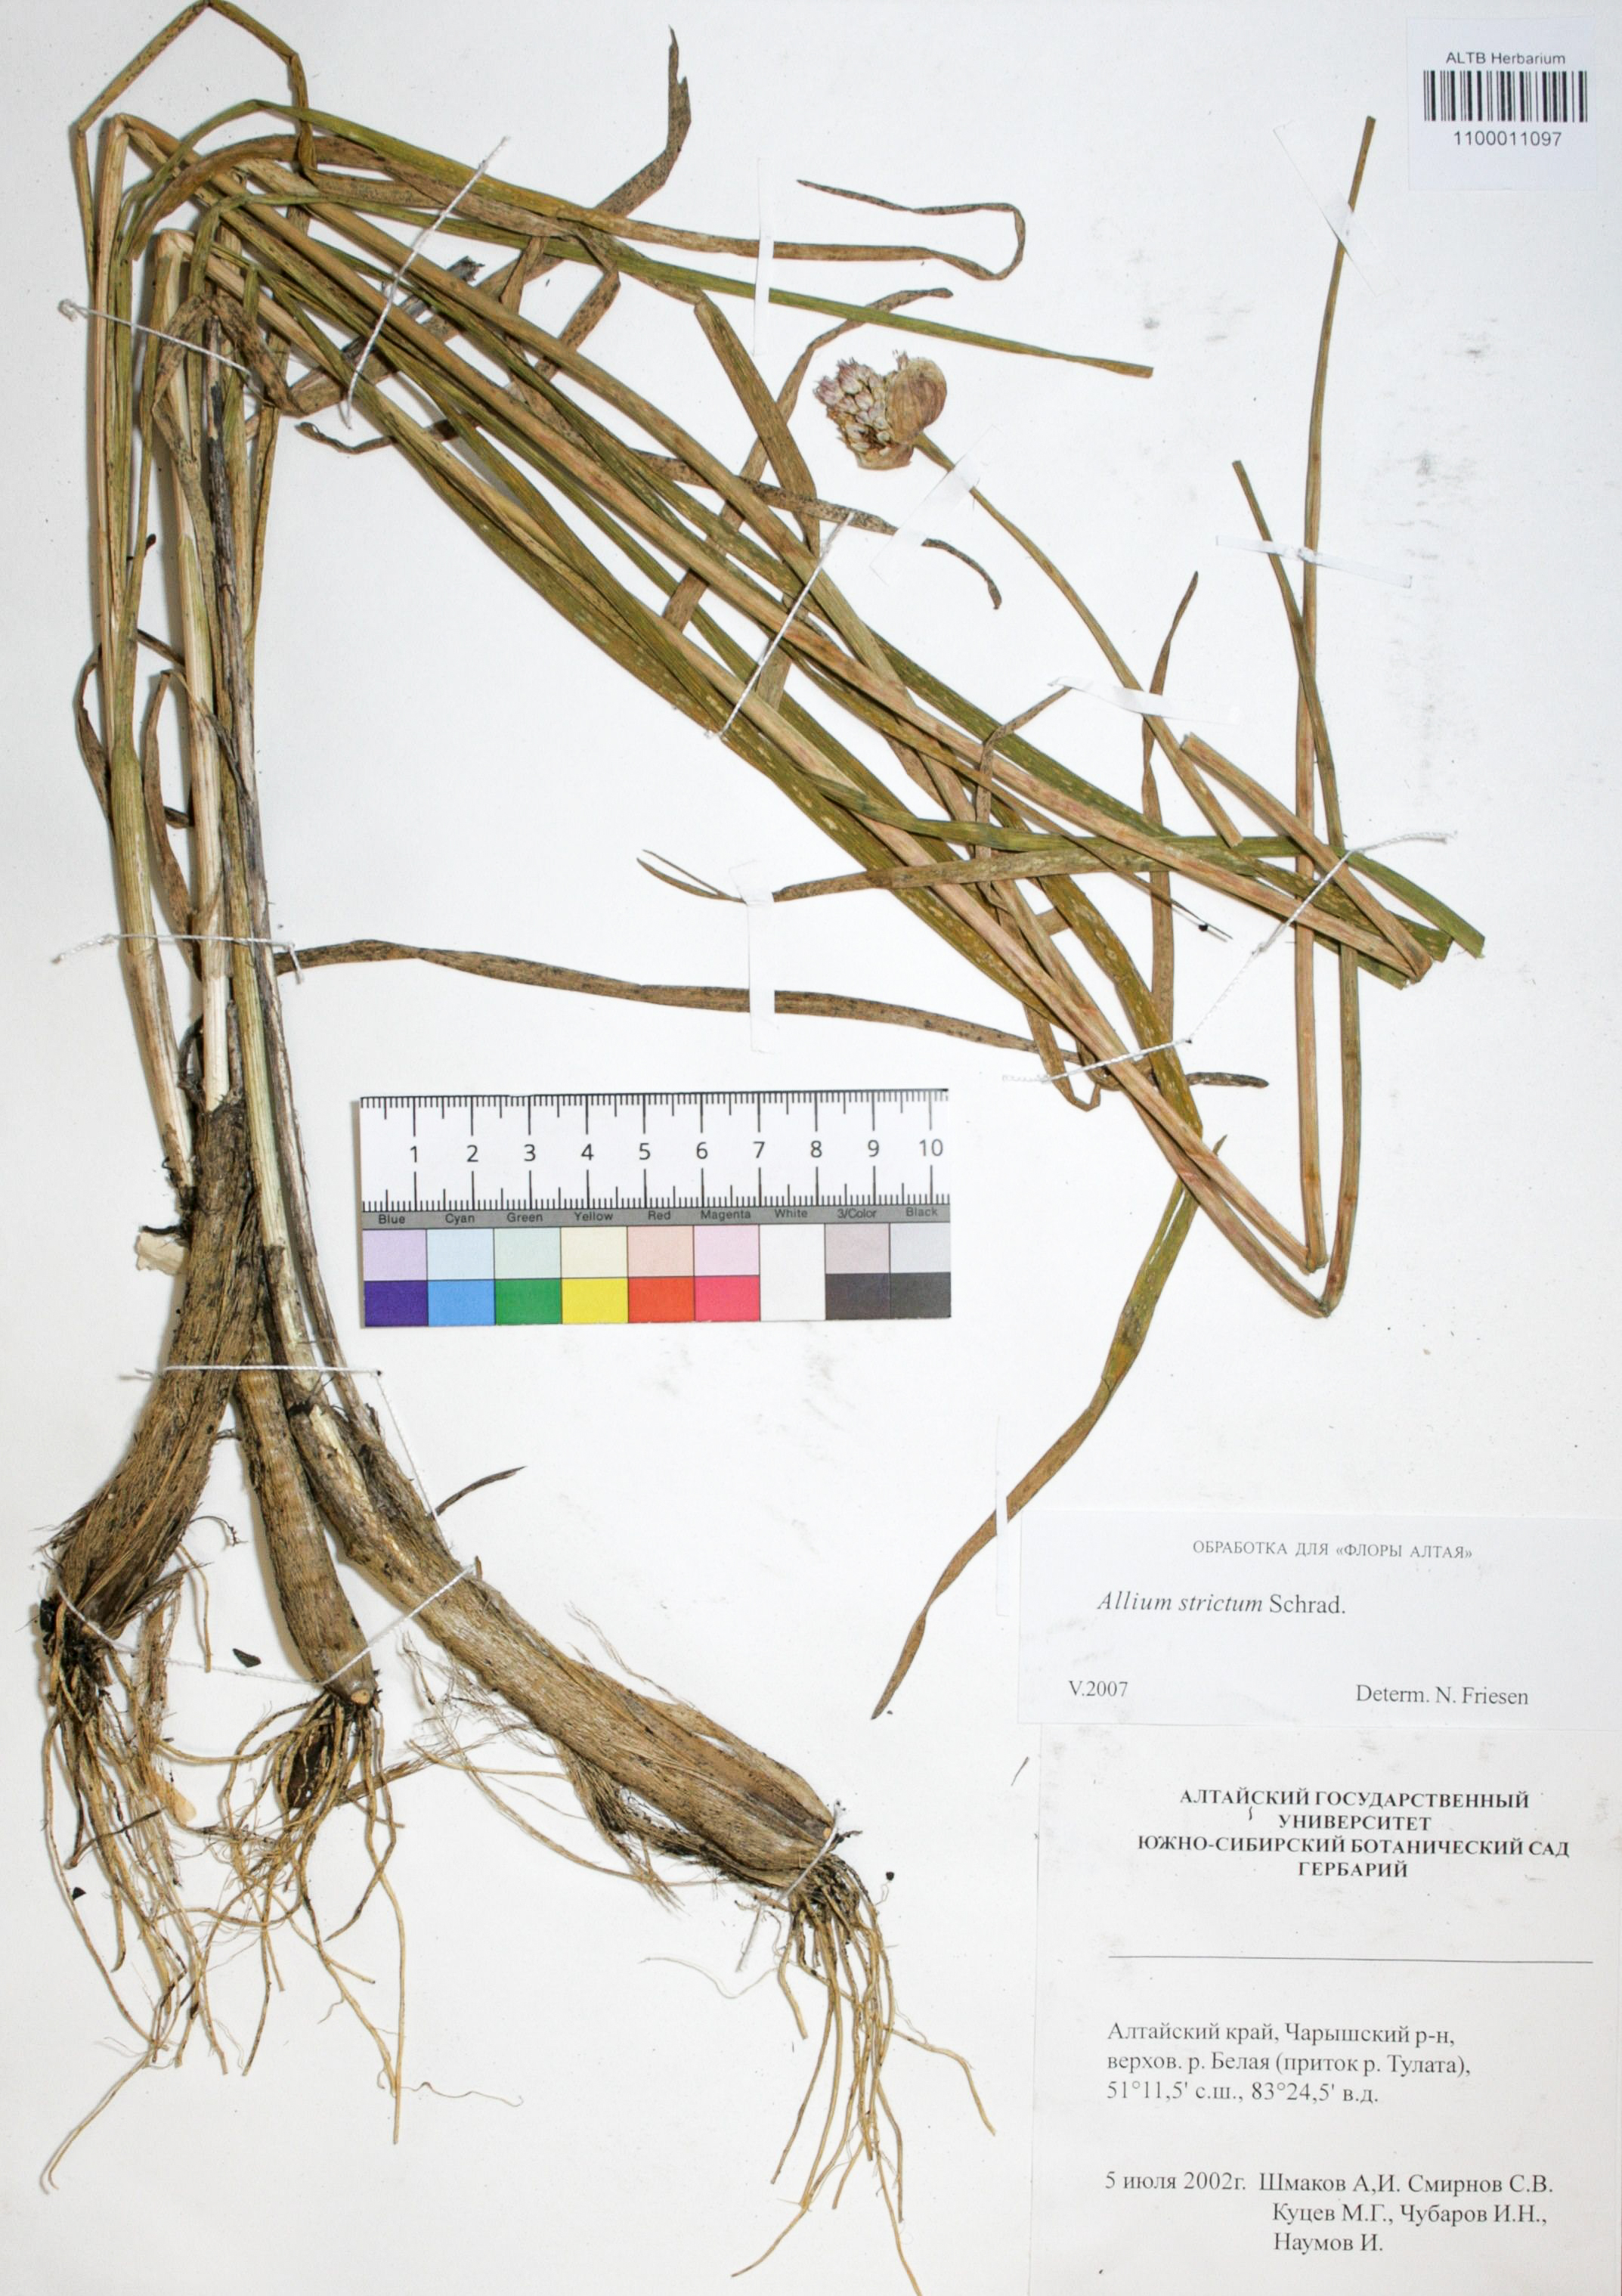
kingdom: Plantae
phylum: Tracheophyta
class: Liliopsida
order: Asparagales
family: Amaryllidaceae
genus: Allium
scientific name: Allium strictum
